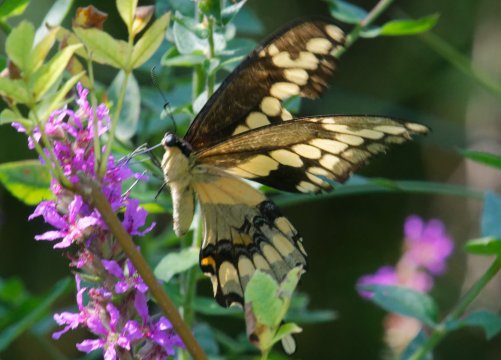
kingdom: Animalia
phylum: Arthropoda
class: Insecta
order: Lepidoptera
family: Papilionidae
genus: Papilio
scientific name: Papilio cresphontes
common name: Eastern Giant Swallowtail
